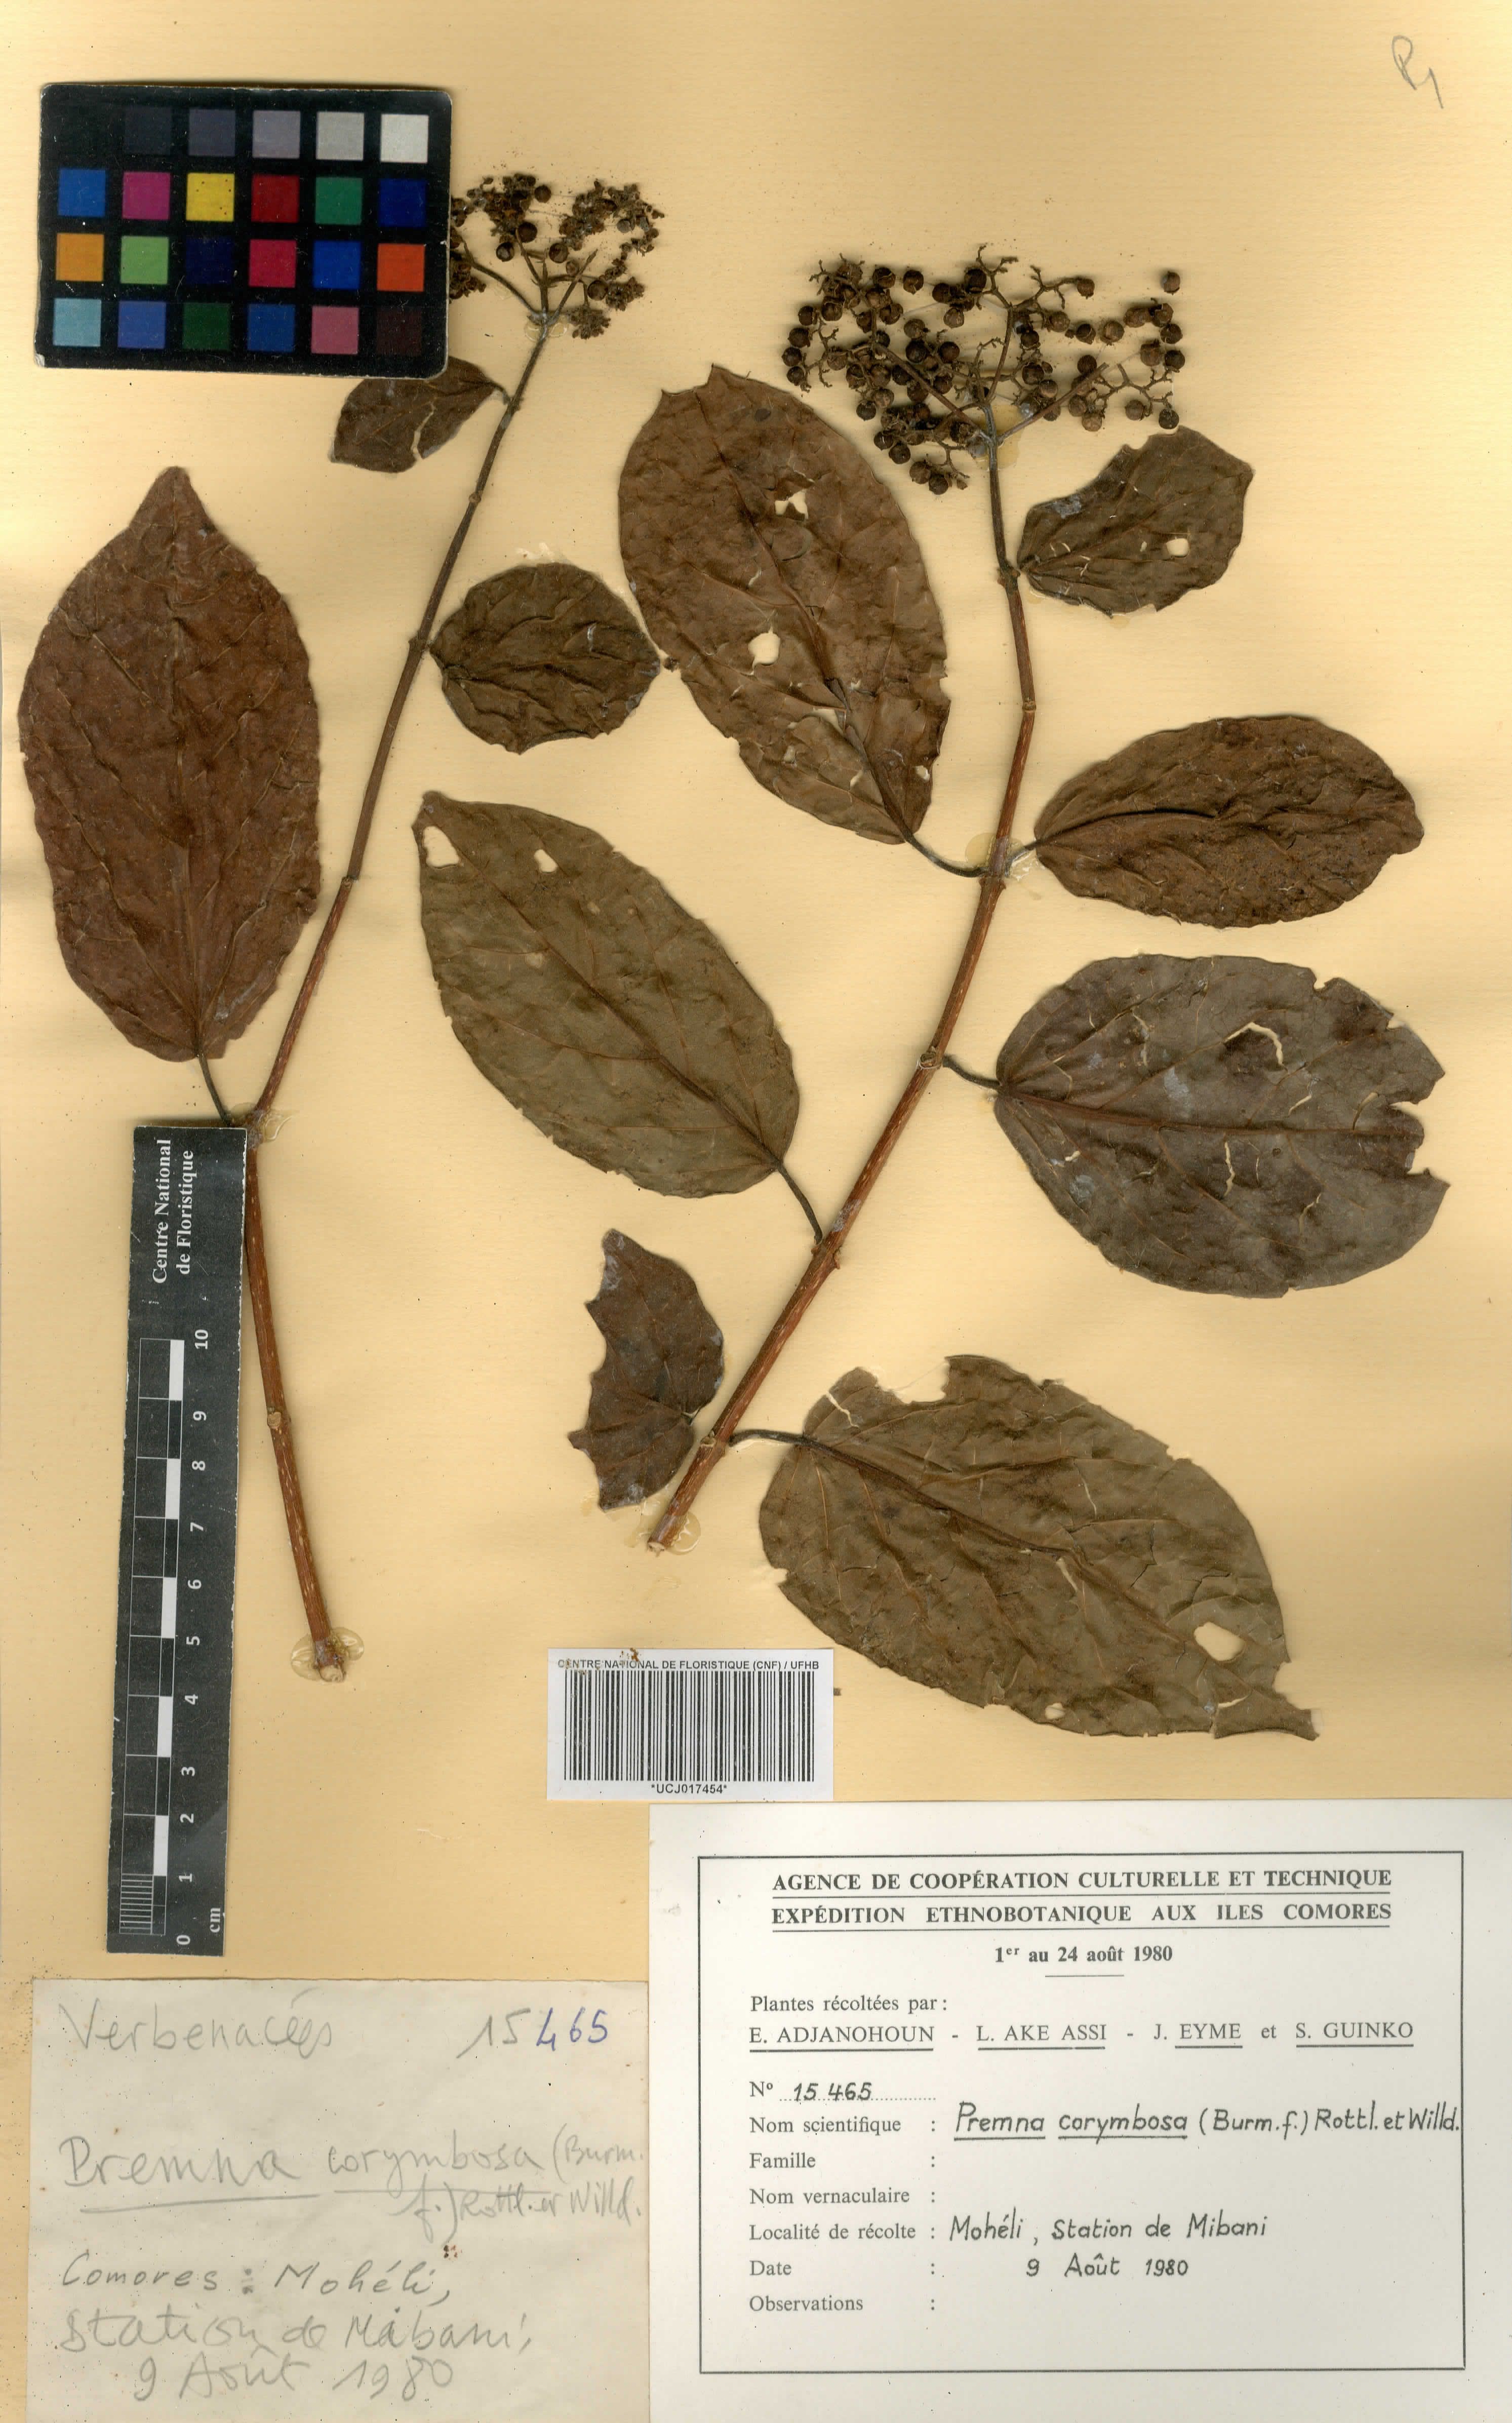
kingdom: Plantae
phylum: Tracheophyta
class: Magnoliopsida
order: Lamiales
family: Lamiaceae
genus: Premna
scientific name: Premna corymbosa
